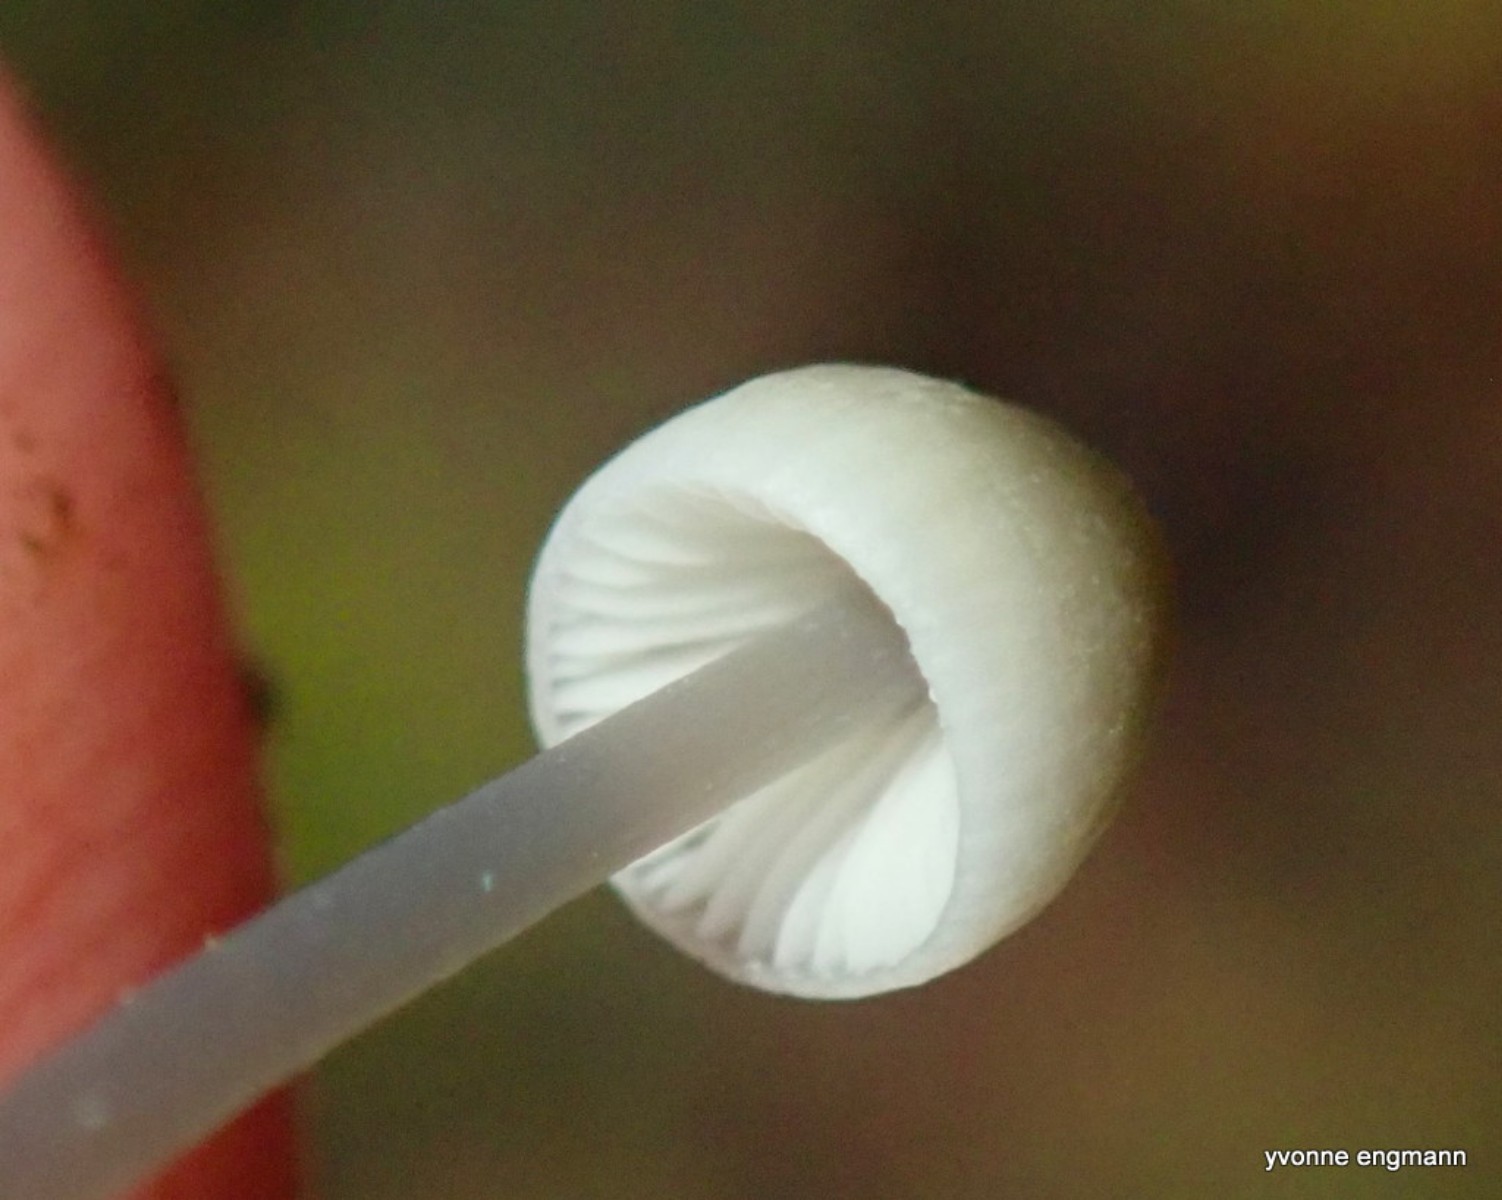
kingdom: Fungi
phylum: Basidiomycota
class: Agaricomycetes
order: Agaricales
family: Mycenaceae
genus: Mycena
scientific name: Mycena
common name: huesvamp
